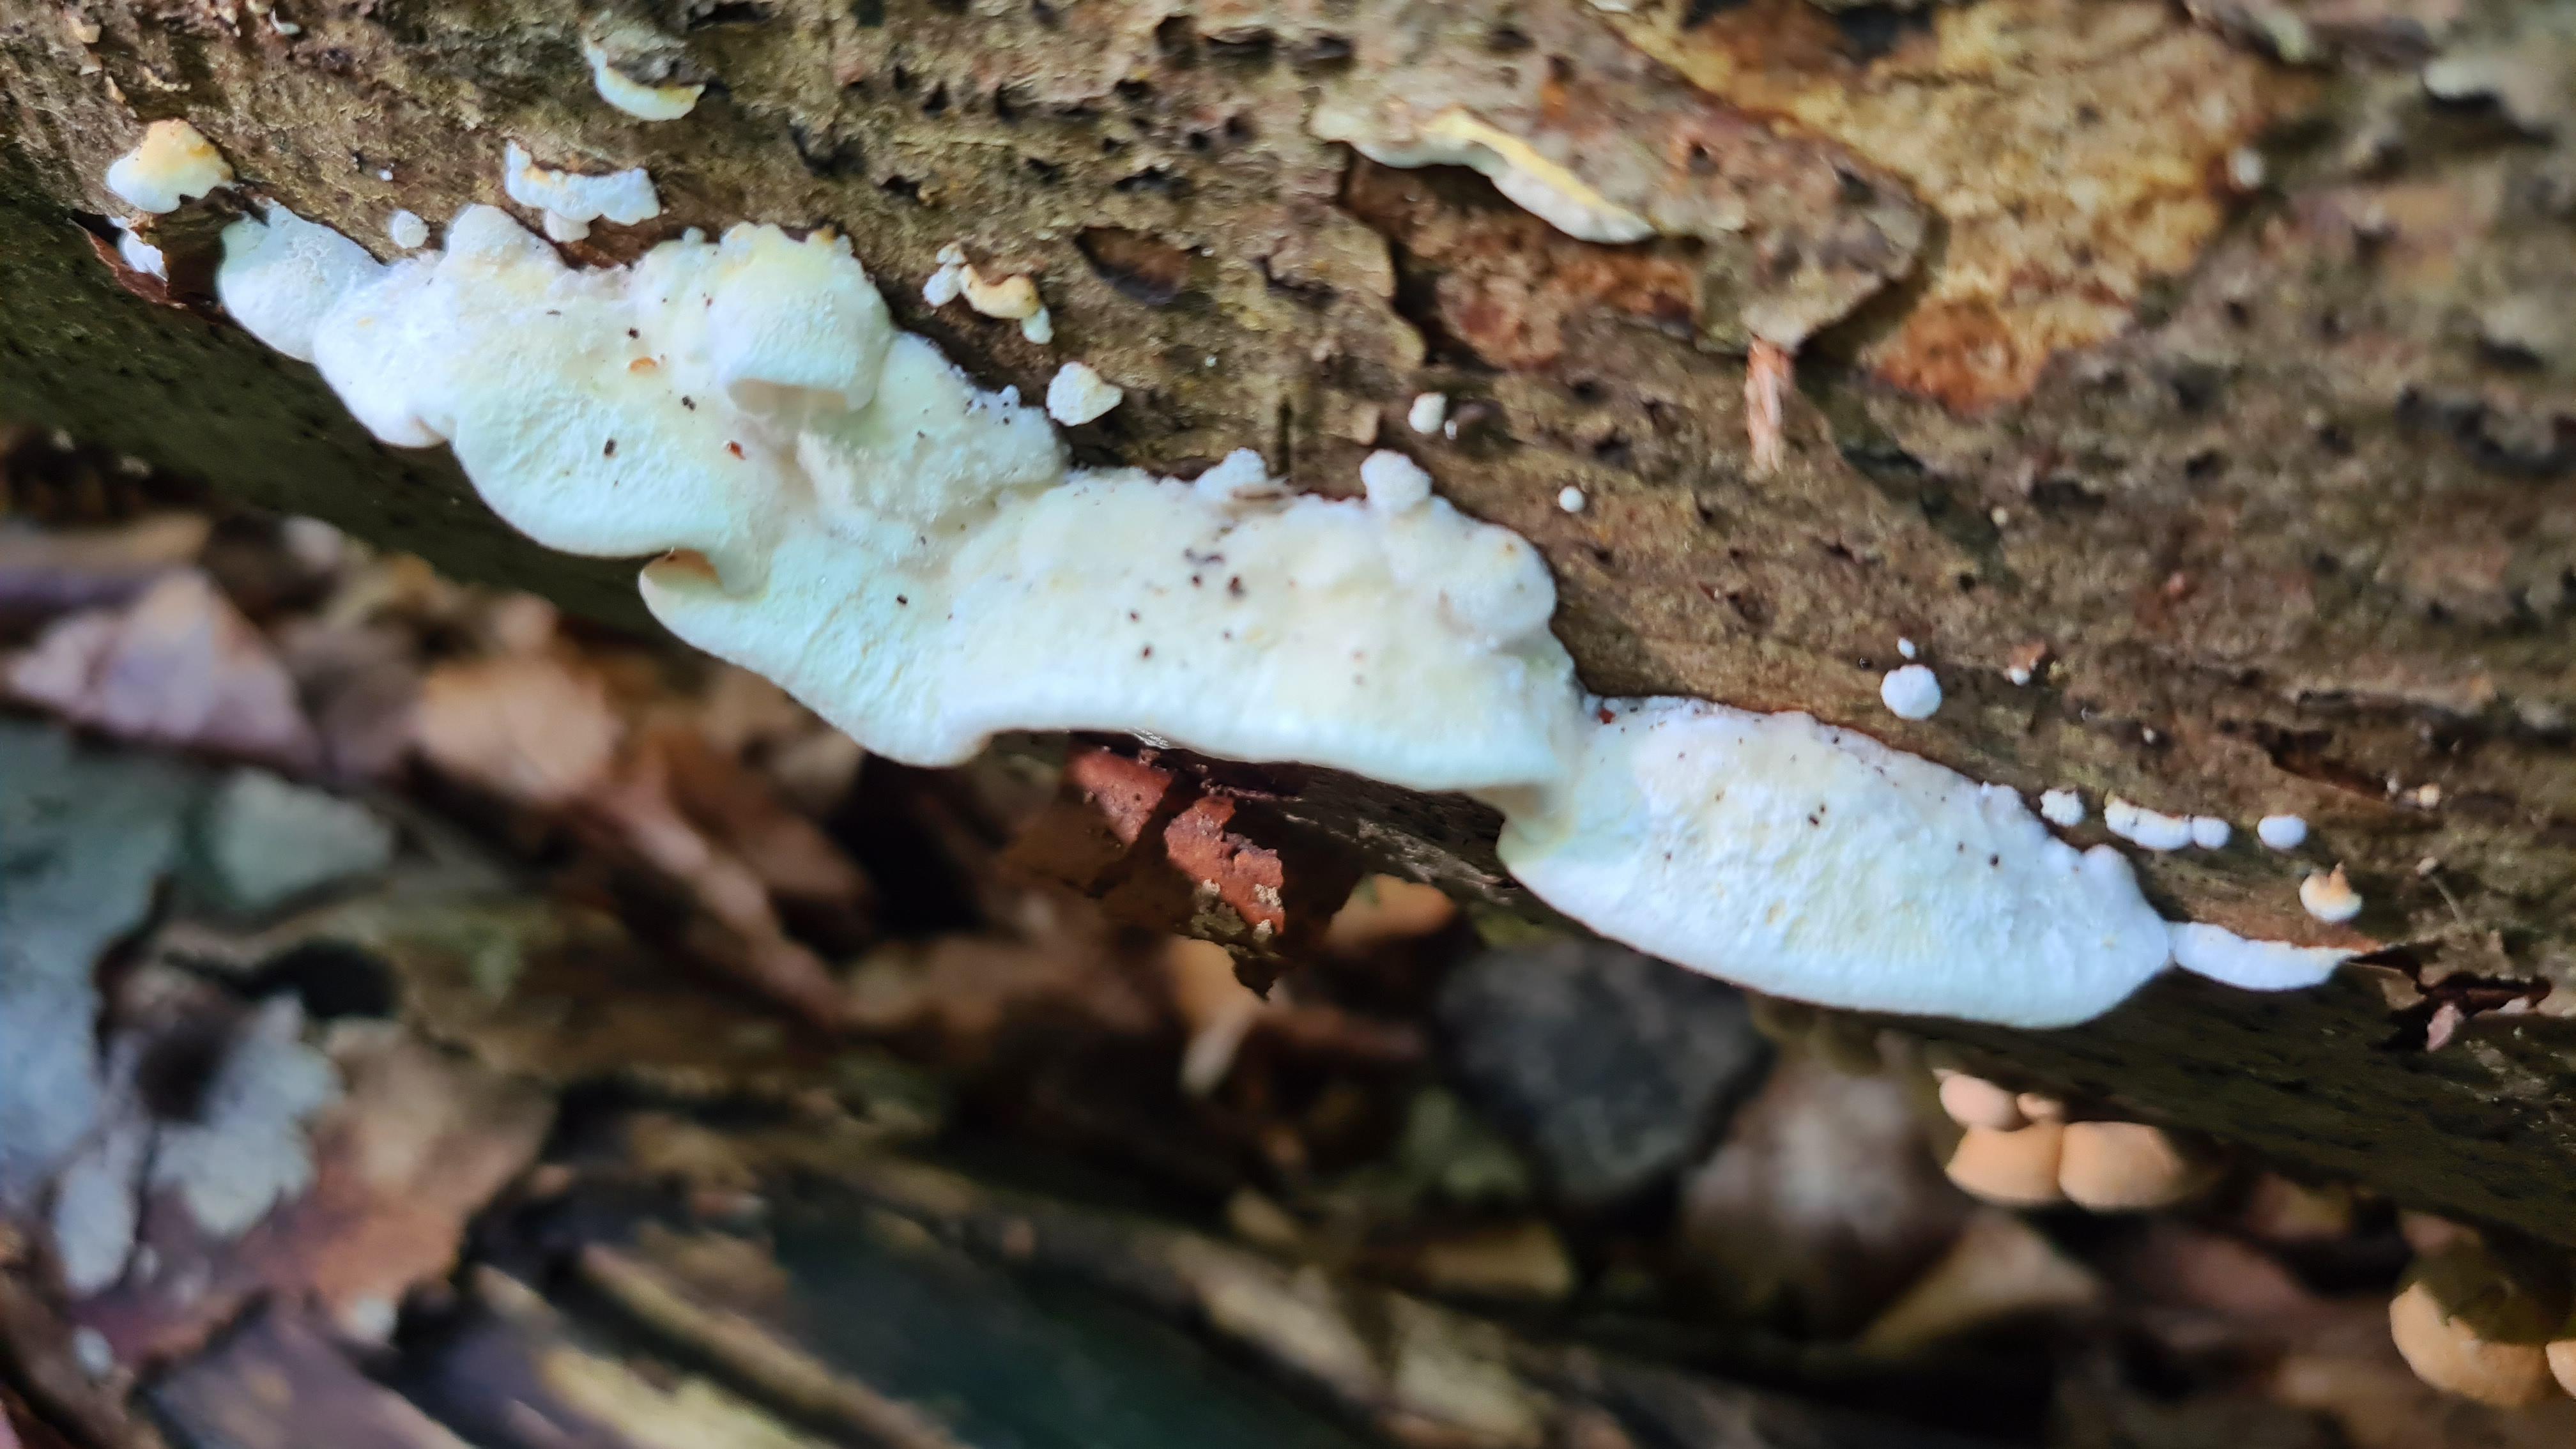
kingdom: Fungi
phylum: Basidiomycota
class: Agaricomycetes
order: Polyporales
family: Incrustoporiaceae
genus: Skeletocutis
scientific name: Skeletocutis nemoralis
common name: stor krystalporesvamp
